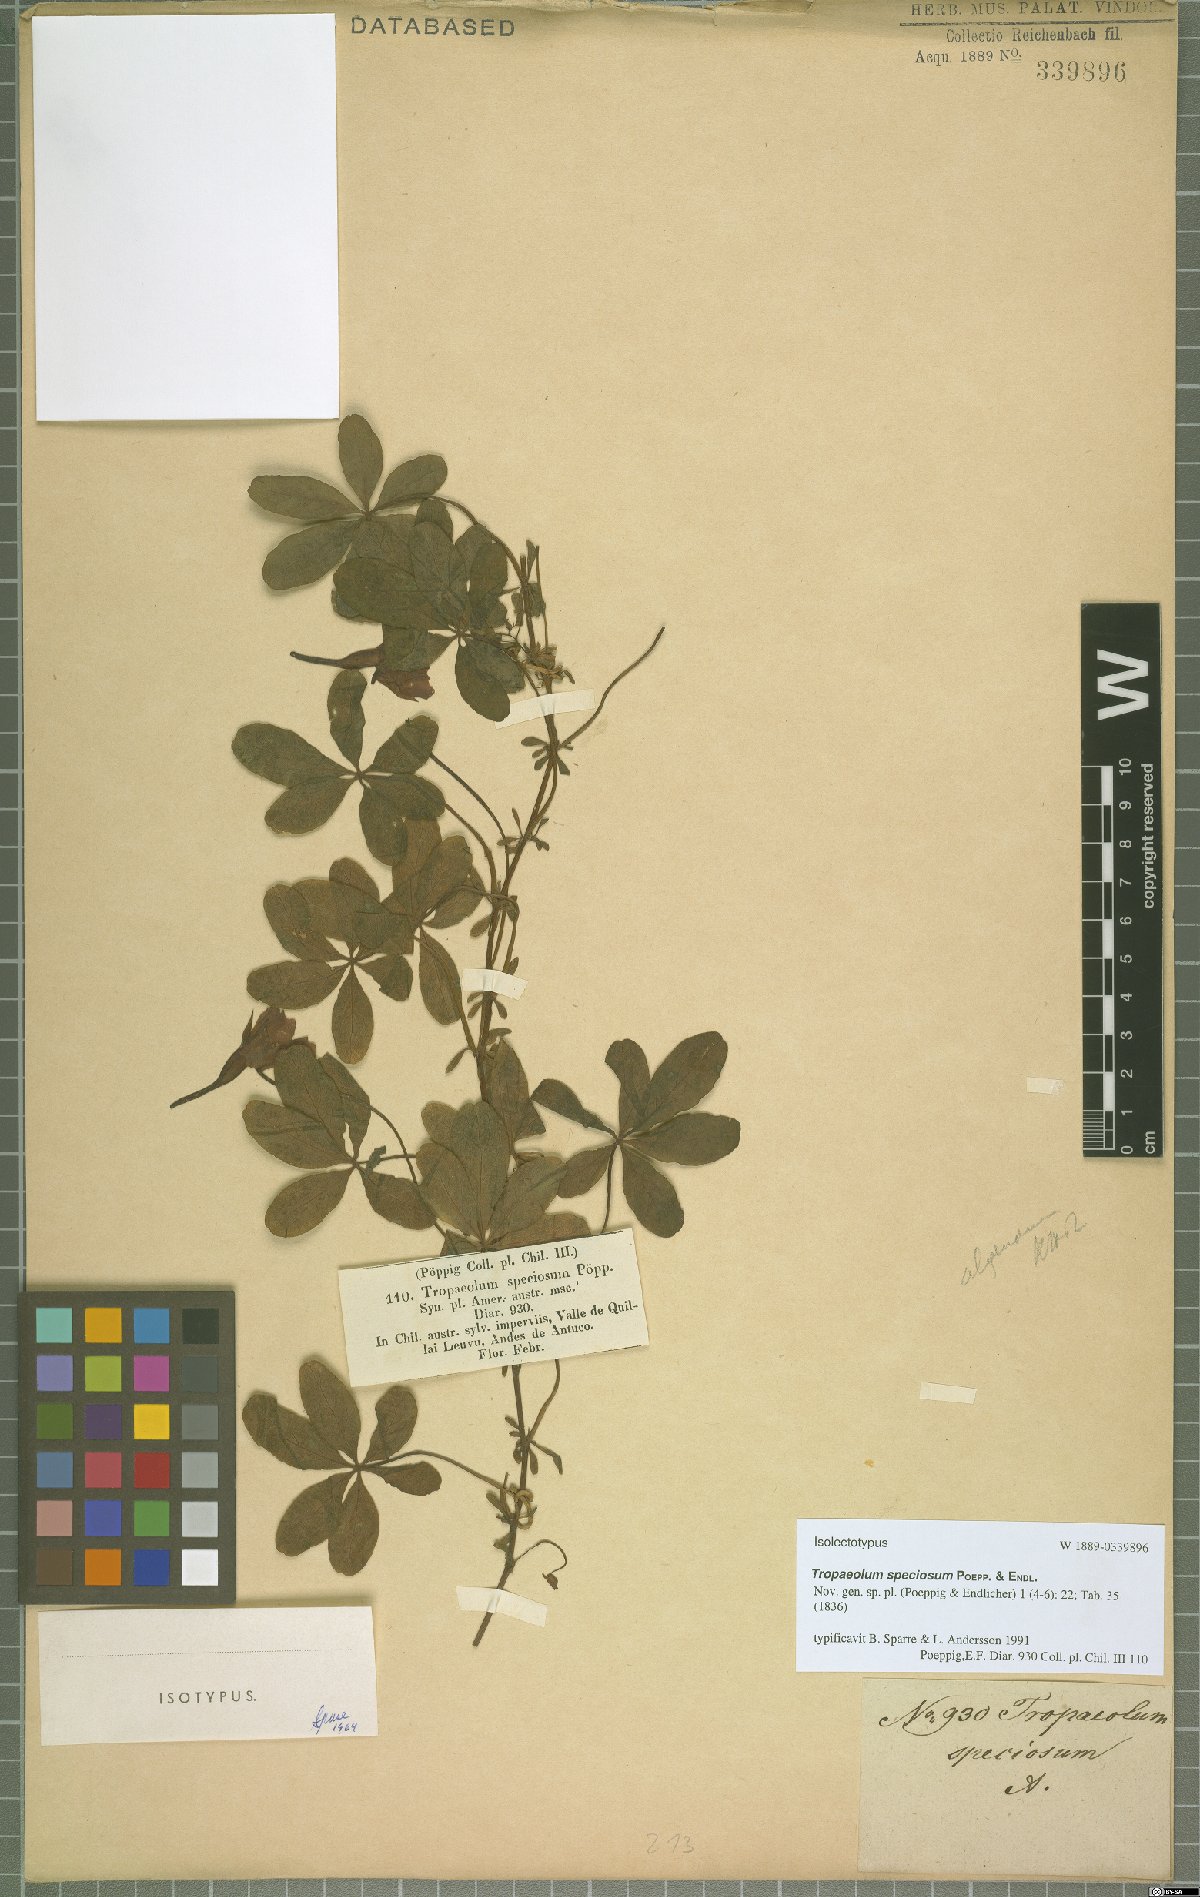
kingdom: Plantae
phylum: Tracheophyta
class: Magnoliopsida
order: Brassicales
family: Tropaeolaceae
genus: Tropaeolum
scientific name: Tropaeolum speciosum
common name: Flame nasturtium
